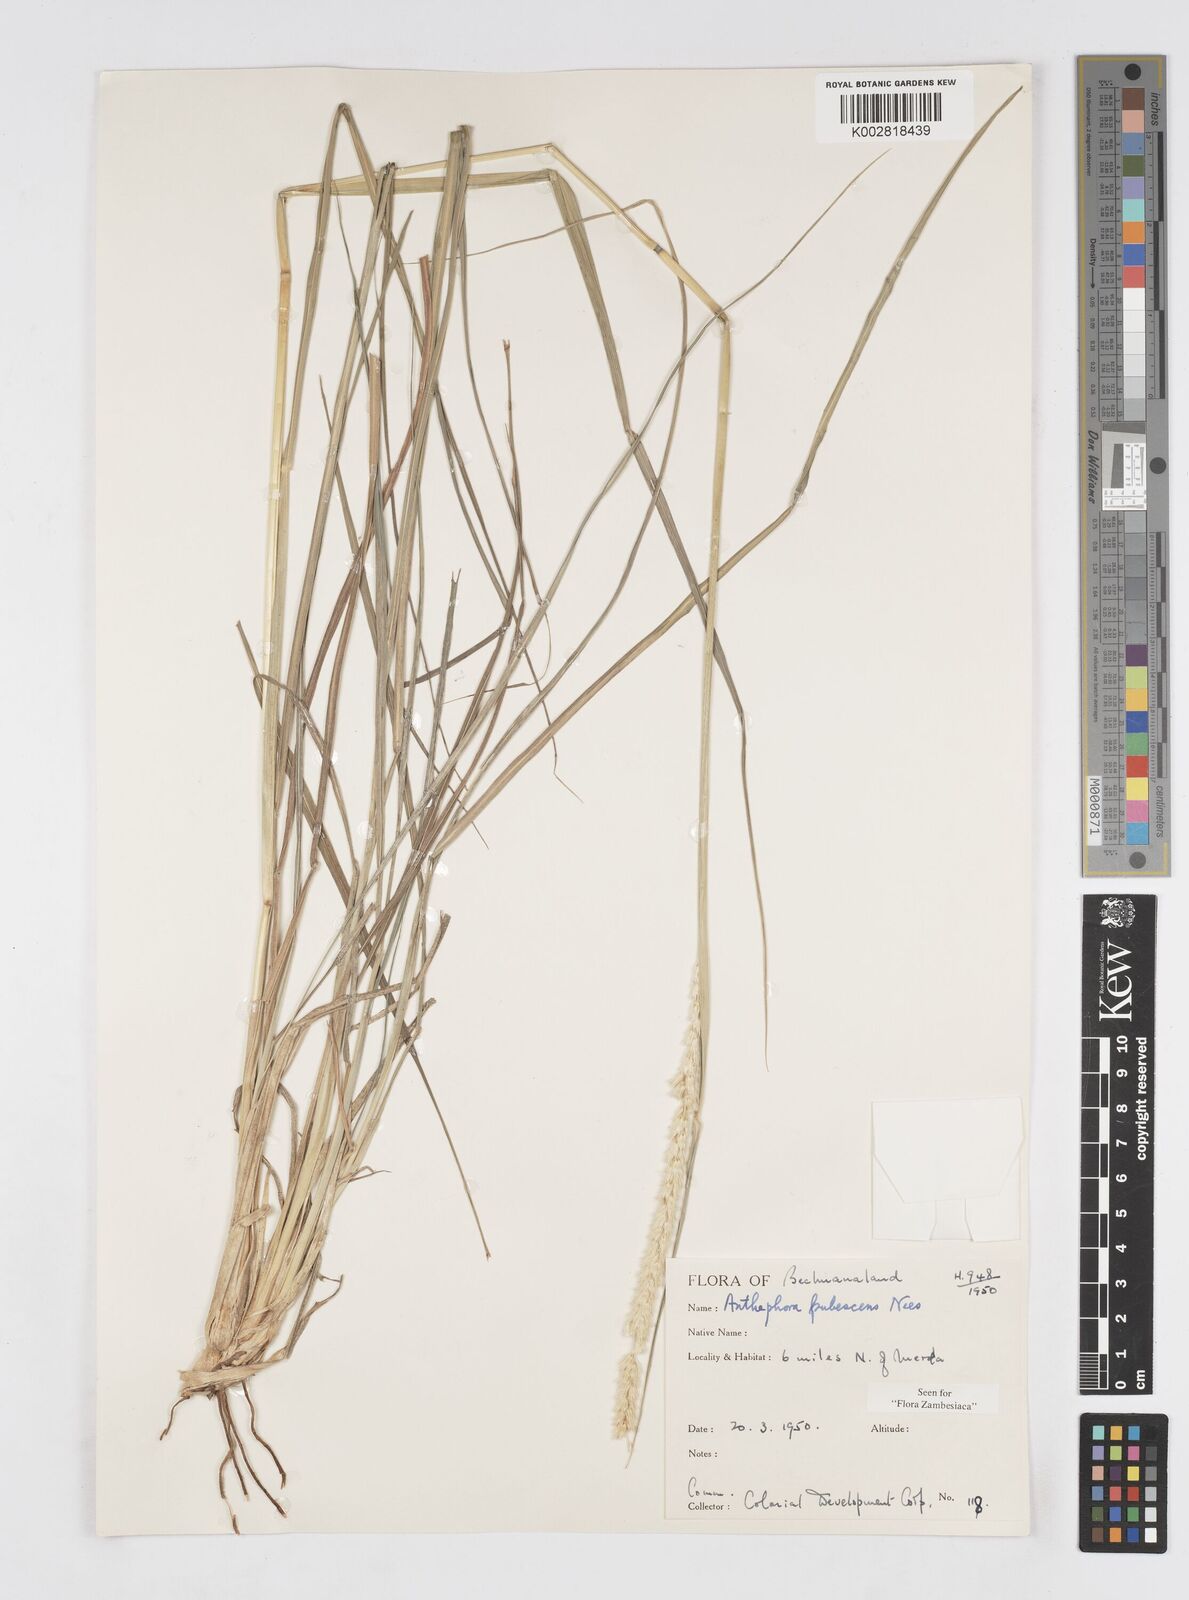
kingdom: Plantae
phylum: Tracheophyta
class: Liliopsida
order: Poales
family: Poaceae
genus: Anthephora
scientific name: Anthephora pubescens
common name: Wool grass
